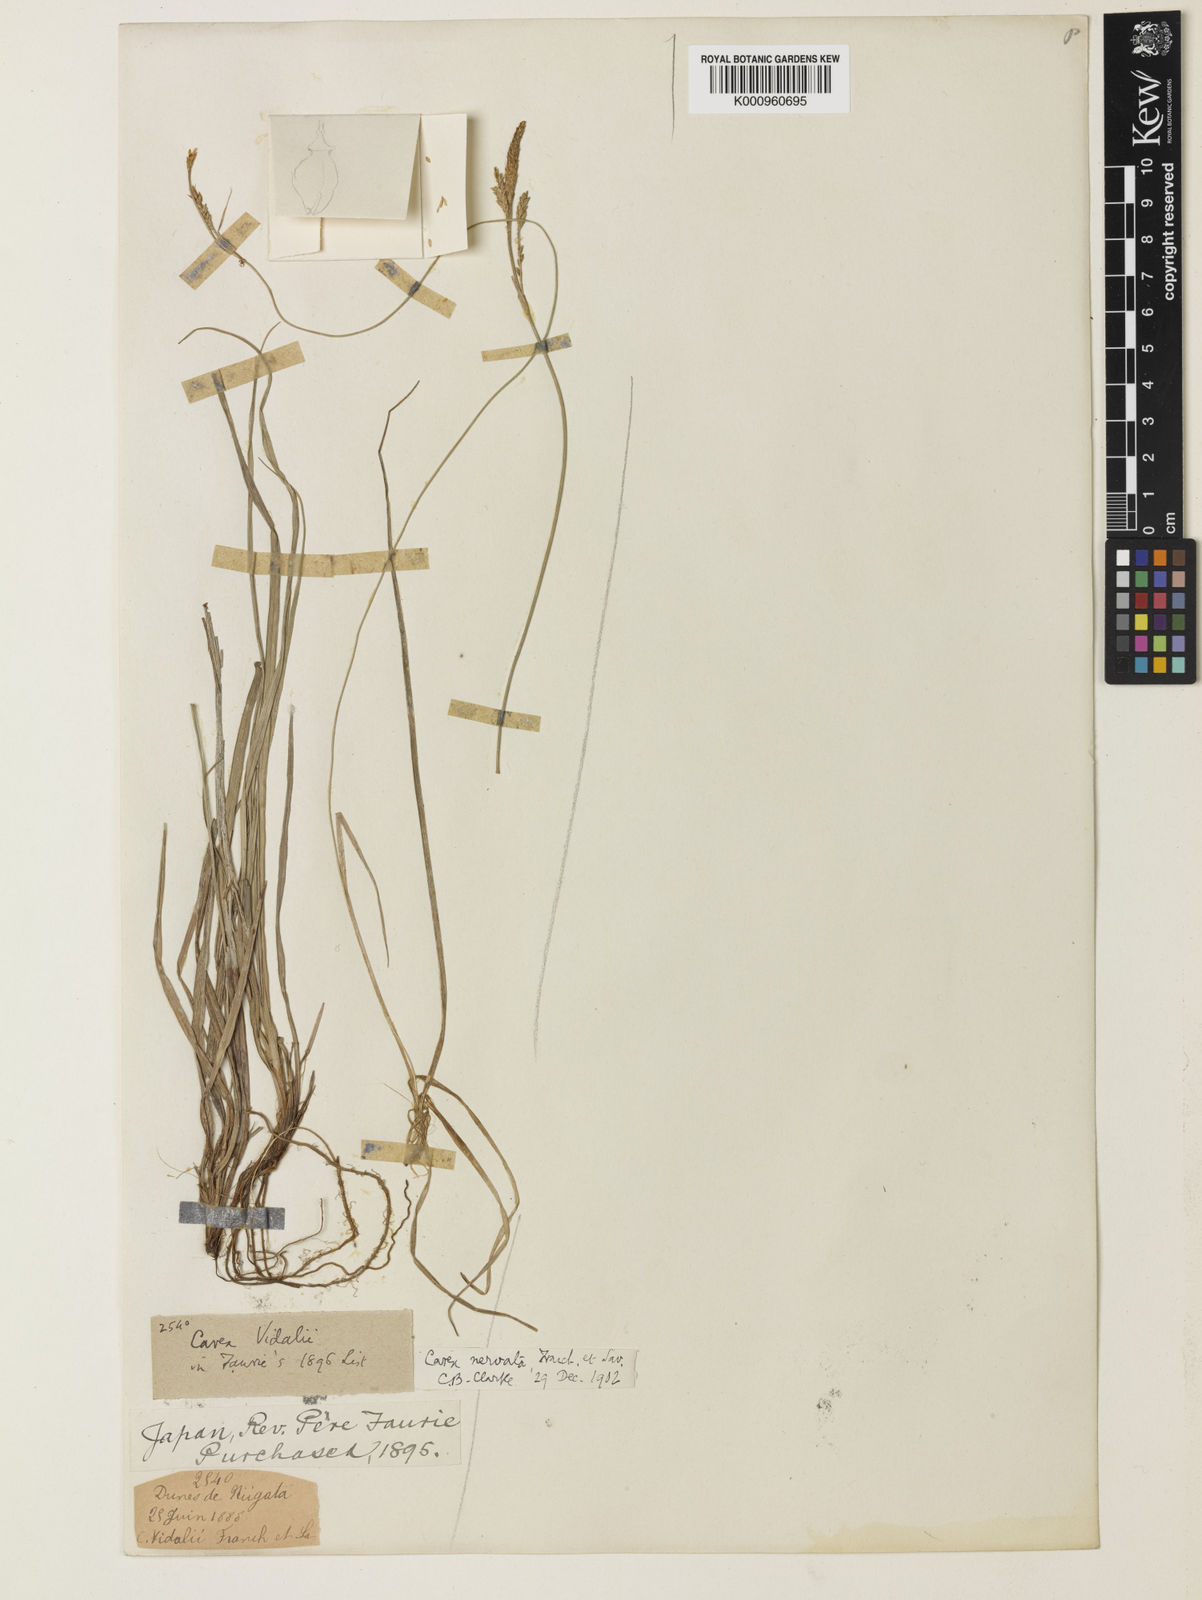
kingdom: Plantae
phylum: Tracheophyta
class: Liliopsida
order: Poales
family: Cyperaceae
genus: Carex
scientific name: Carex caryophyllea
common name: Spring sedge
